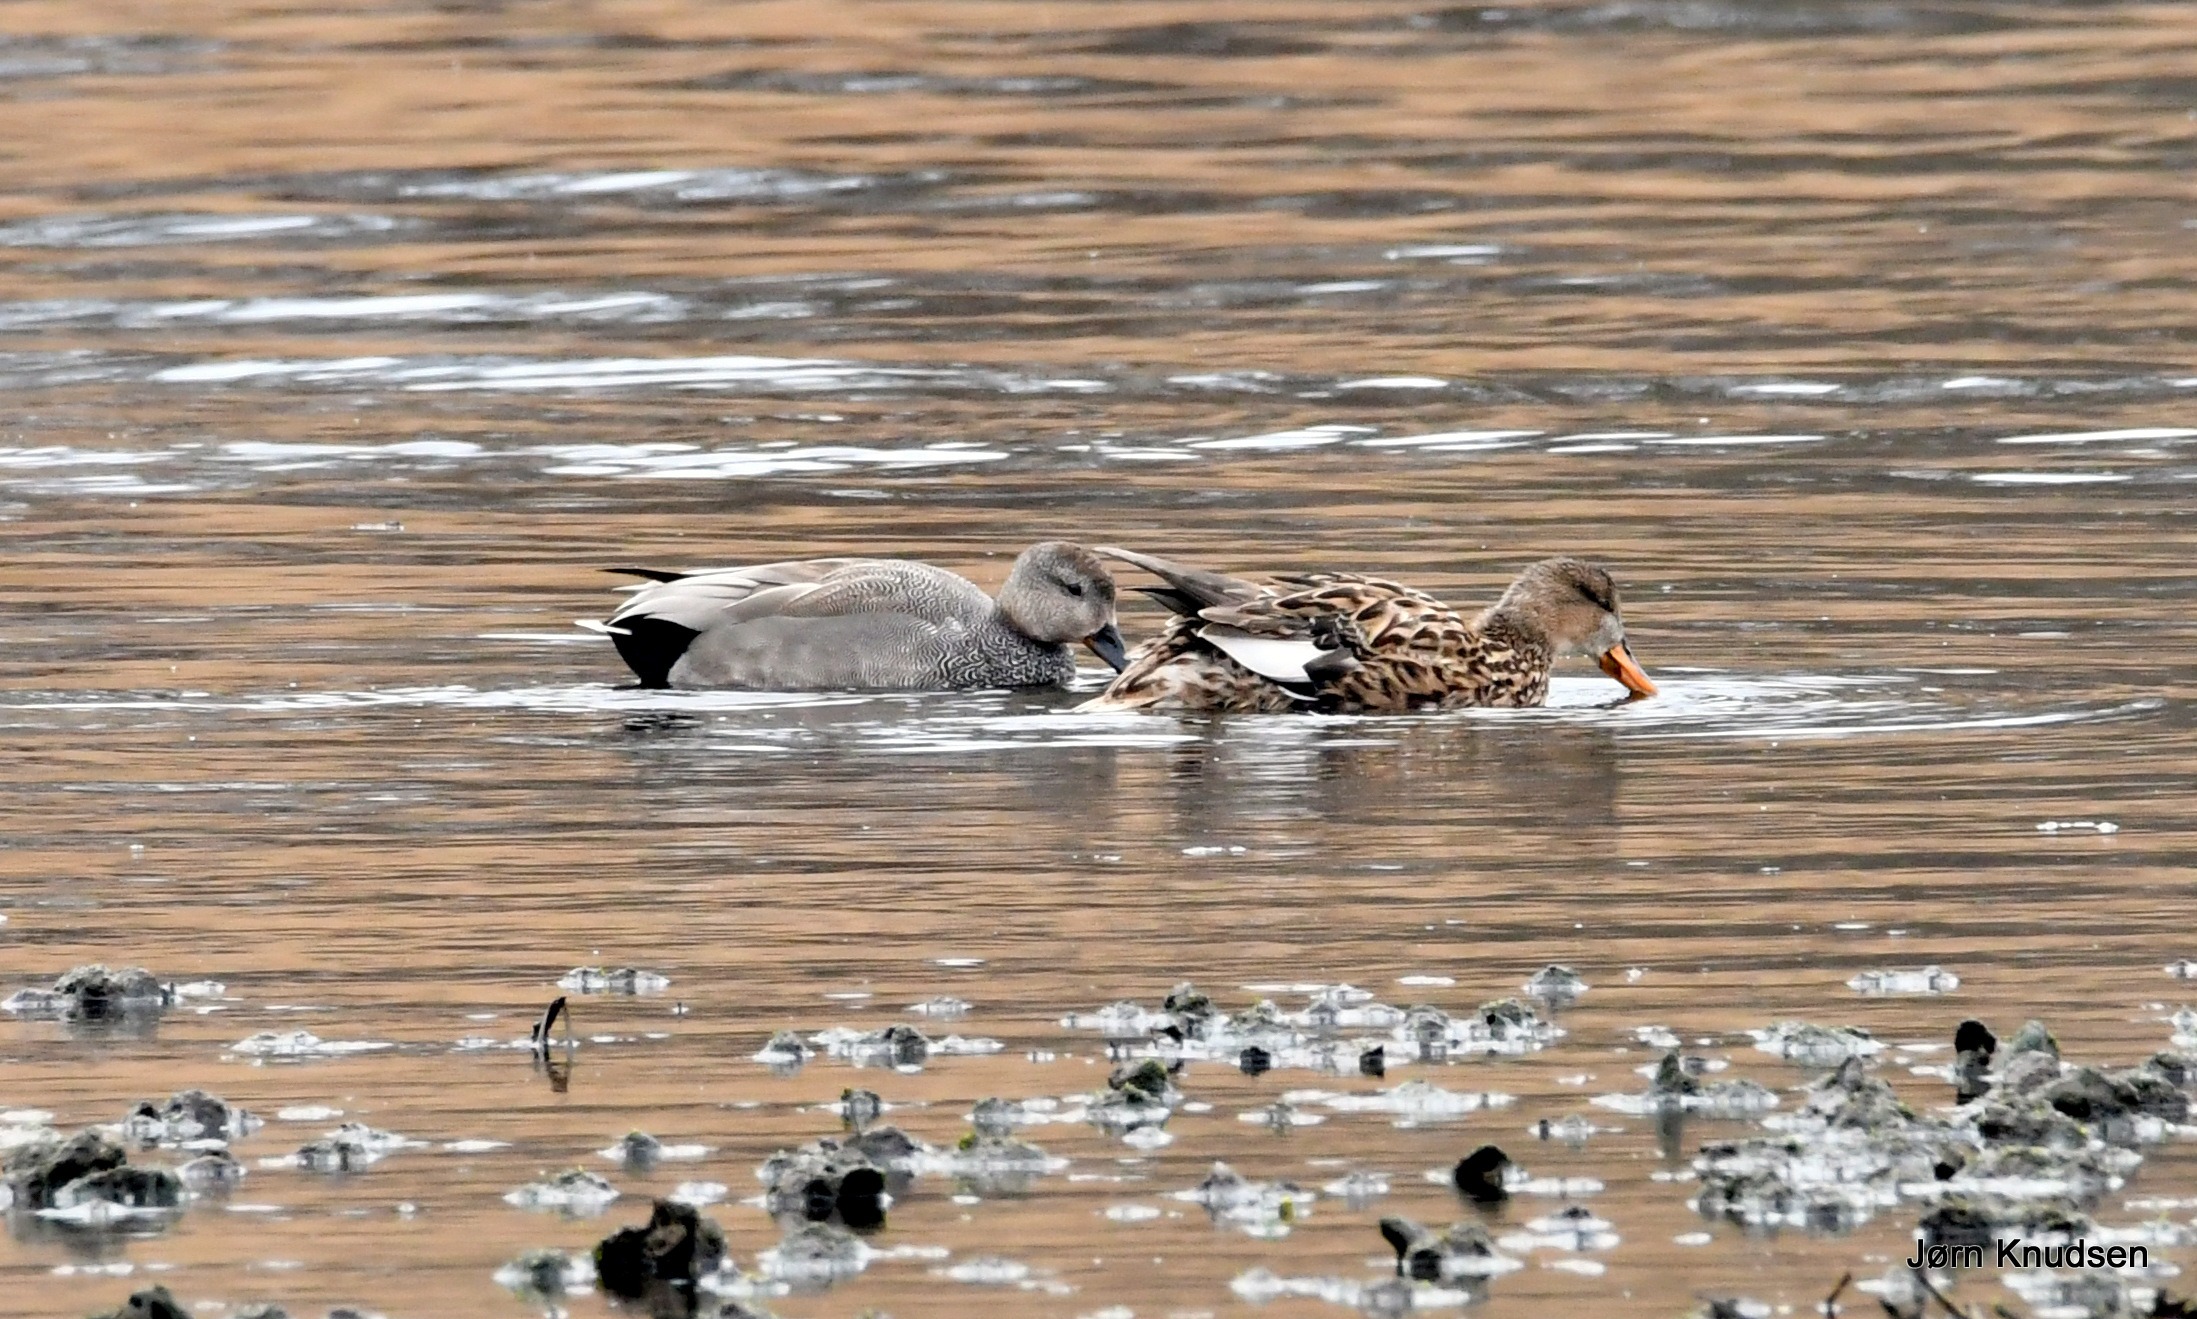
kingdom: Animalia
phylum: Chordata
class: Aves
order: Anseriformes
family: Anatidae
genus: Mareca
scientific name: Mareca strepera
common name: Knarand
